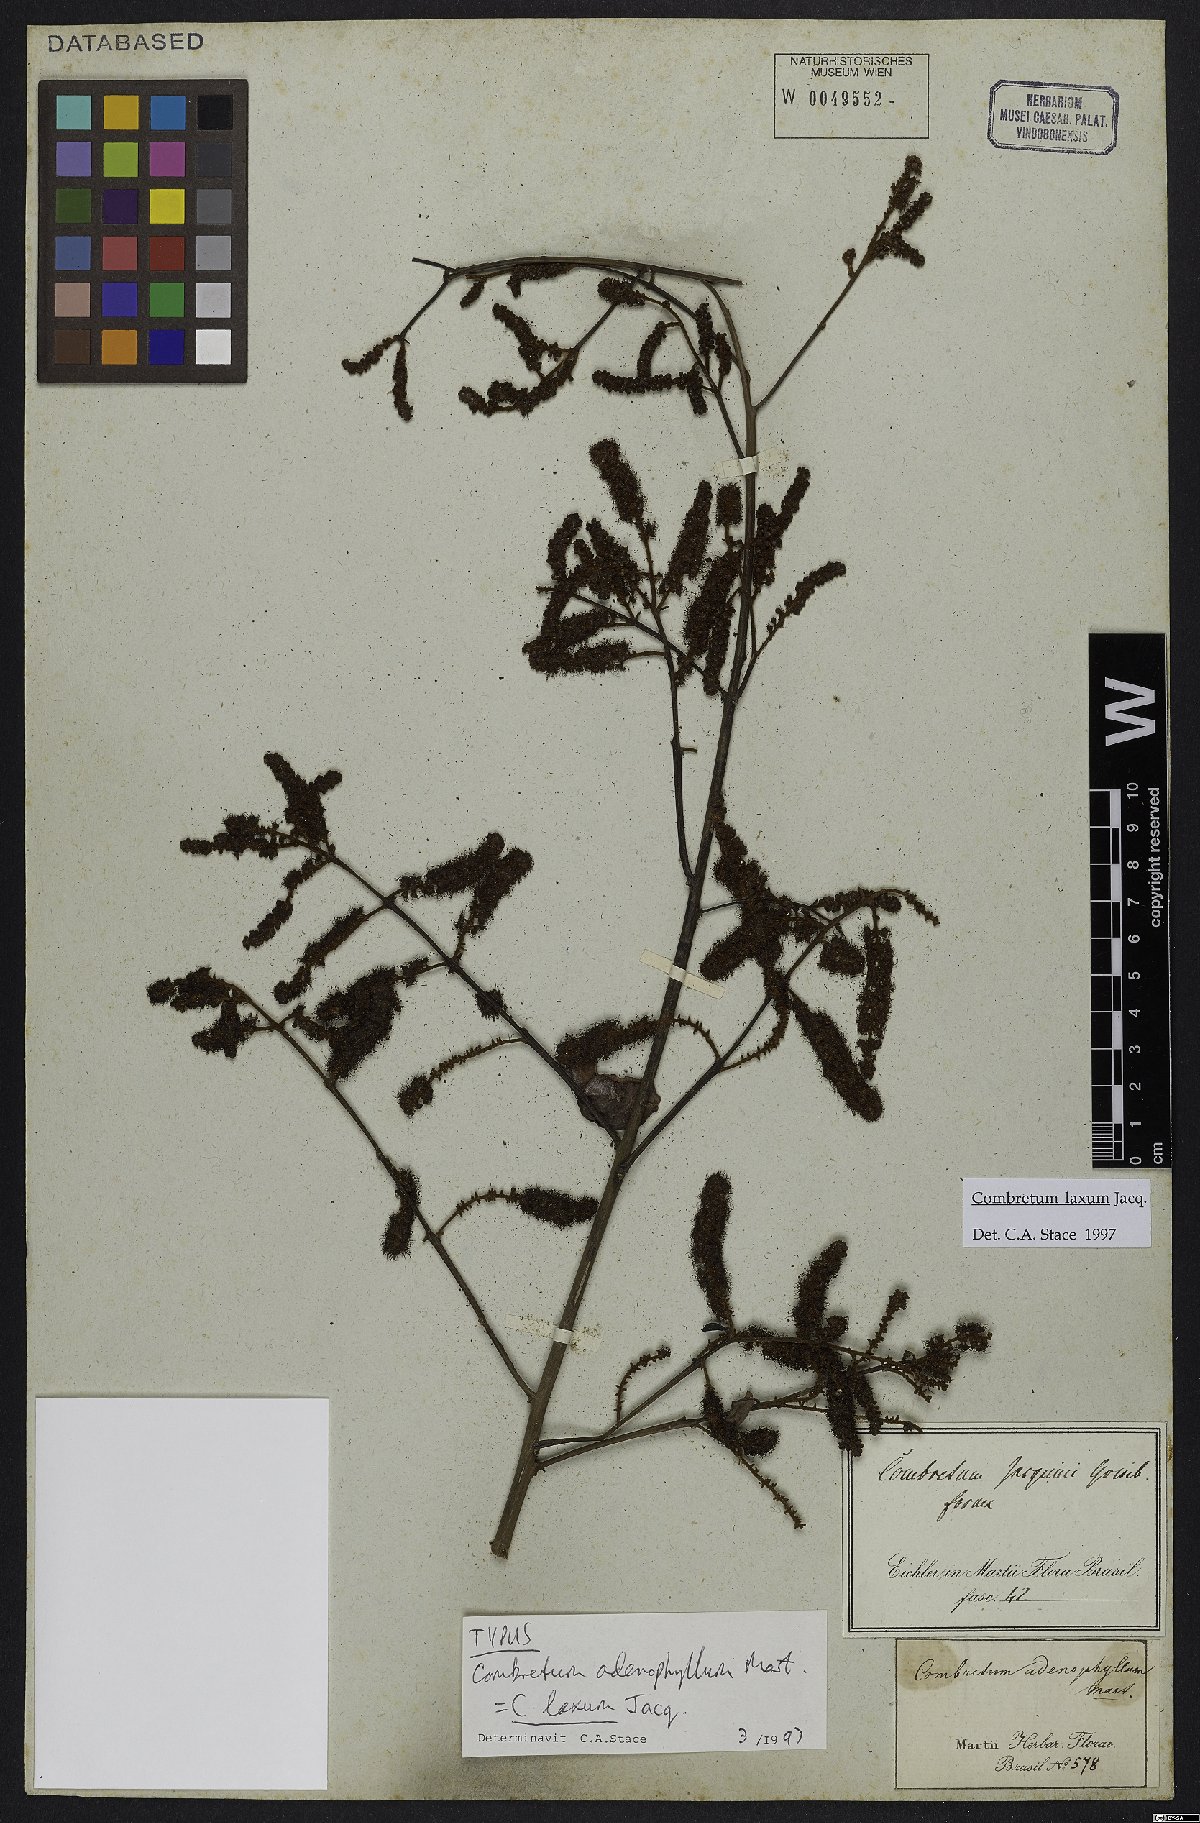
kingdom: Plantae
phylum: Tracheophyta
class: Magnoliopsida
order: Myrtales
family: Combretaceae
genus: Combretum
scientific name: Combretum laxum
